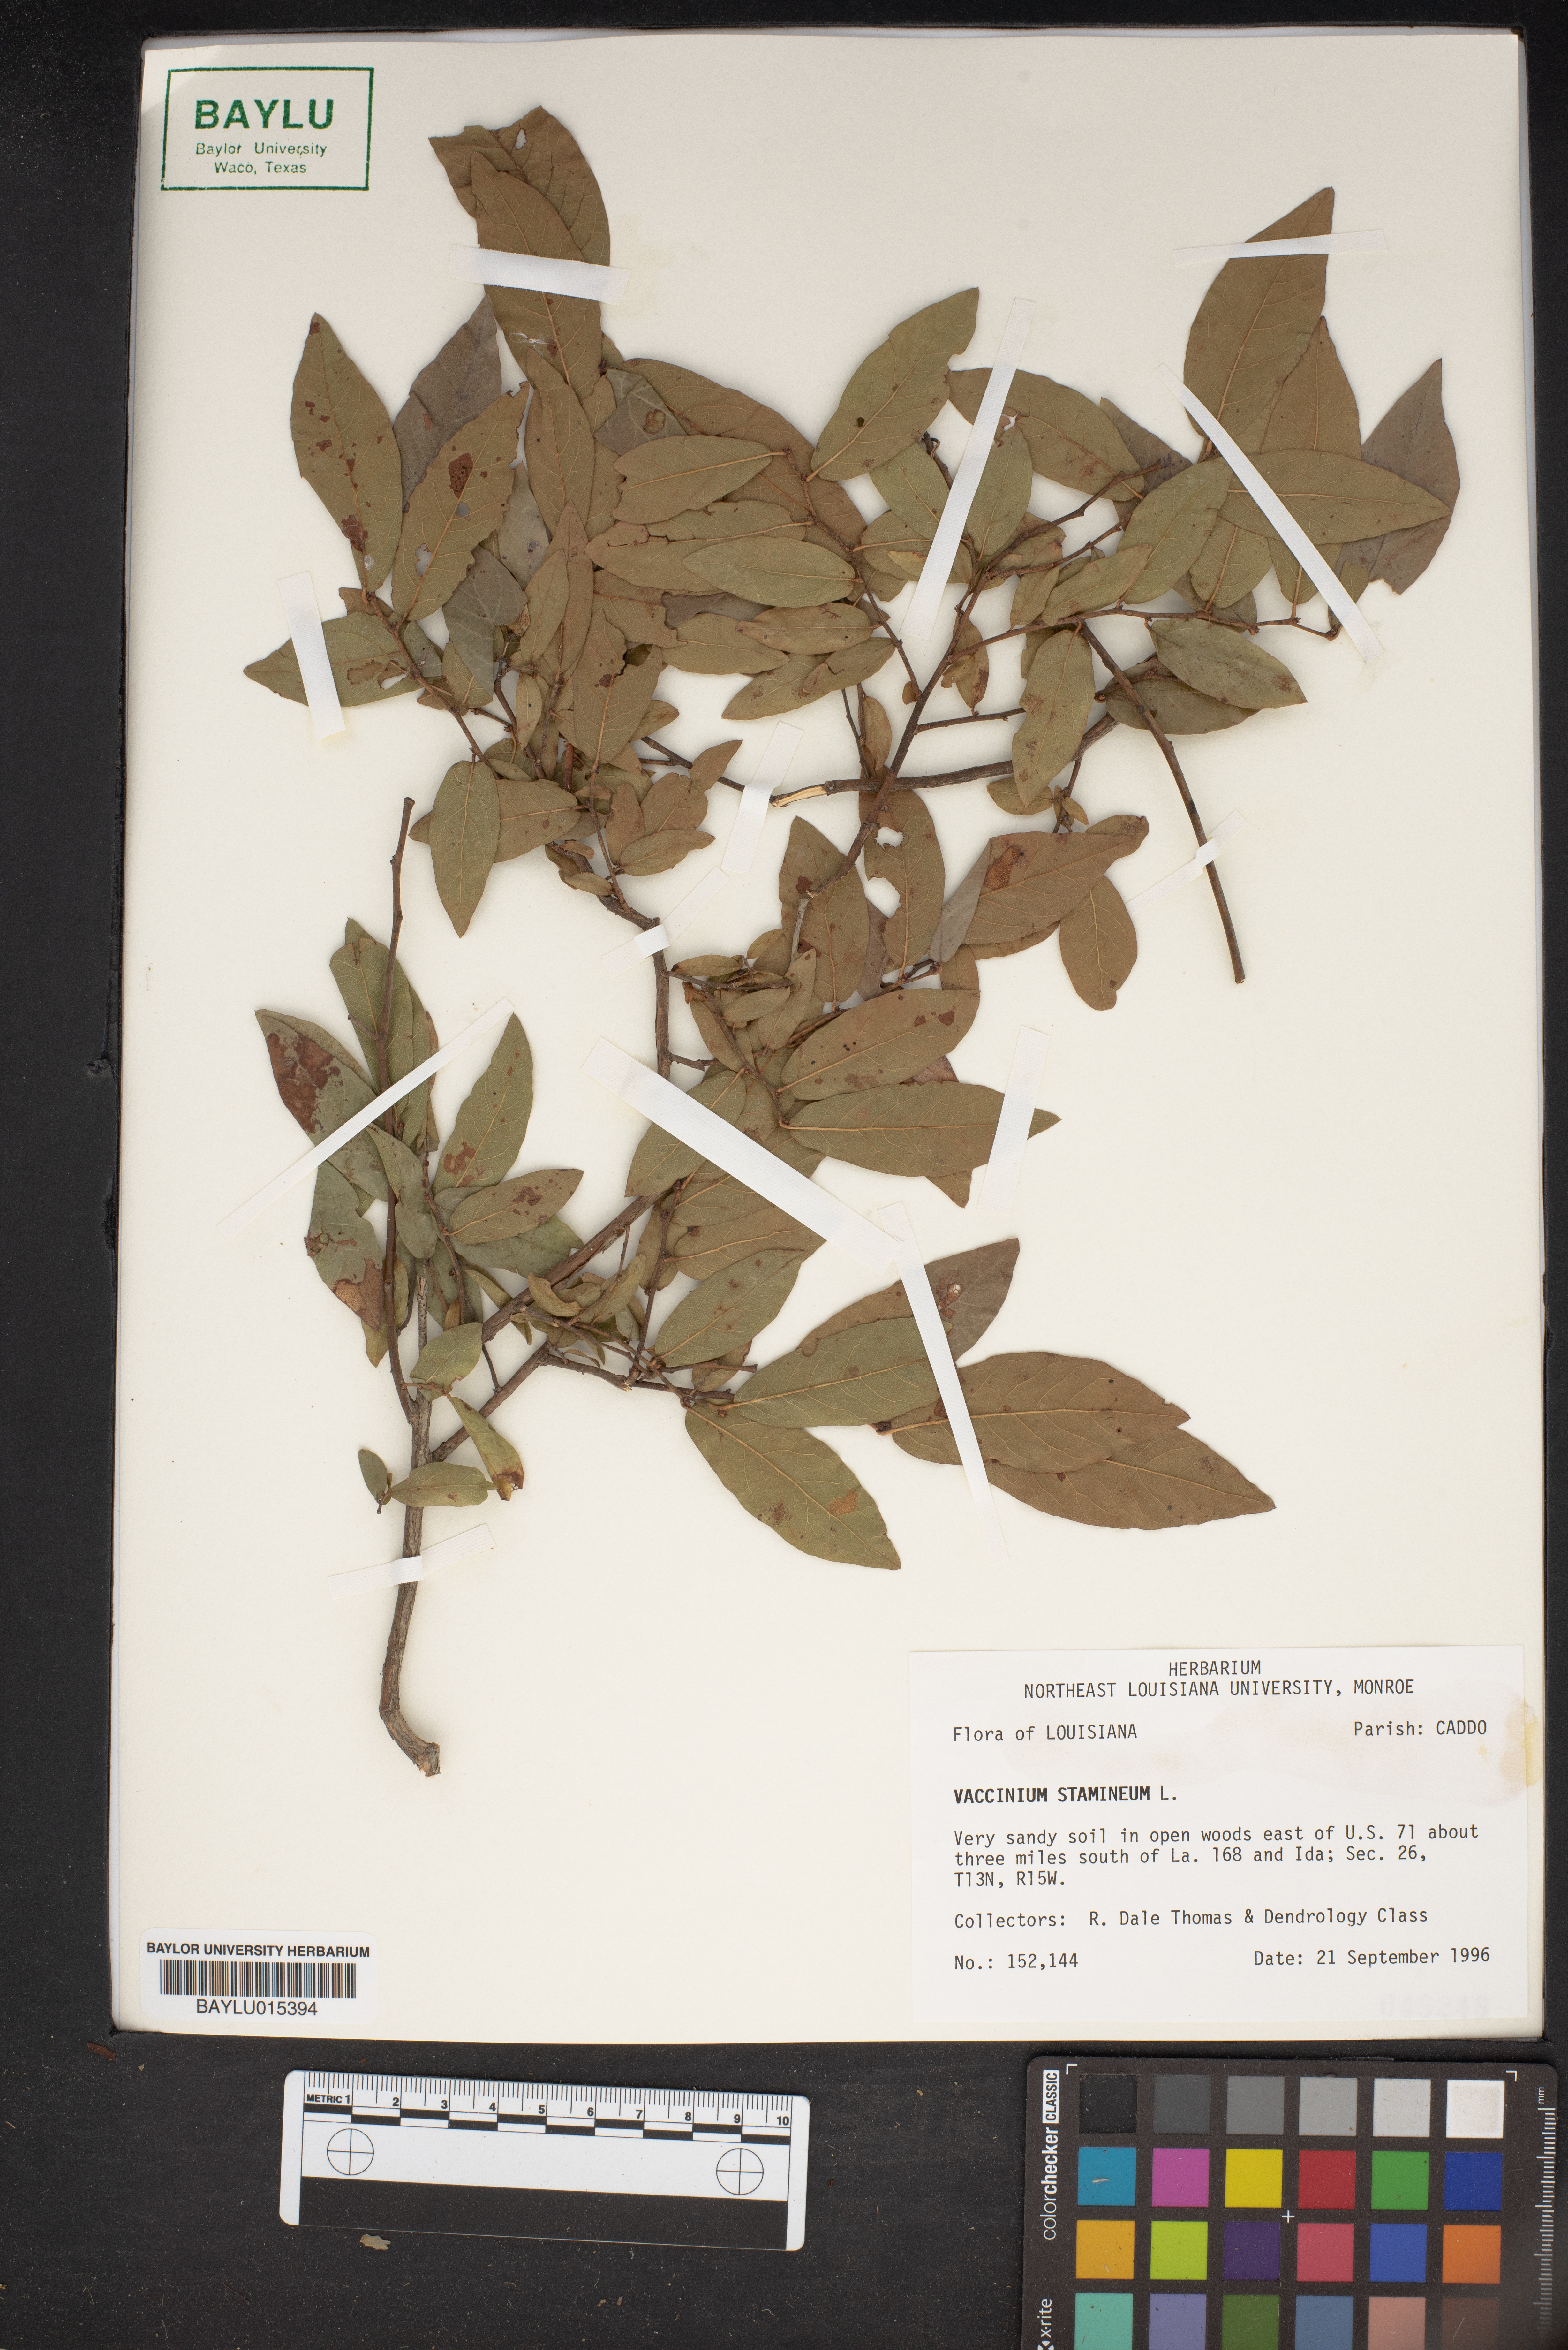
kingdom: Plantae
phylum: Tracheophyta
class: Magnoliopsida
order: Ericales
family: Ericaceae
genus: Vaccinium
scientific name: Vaccinium stamineum
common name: Deerberry
